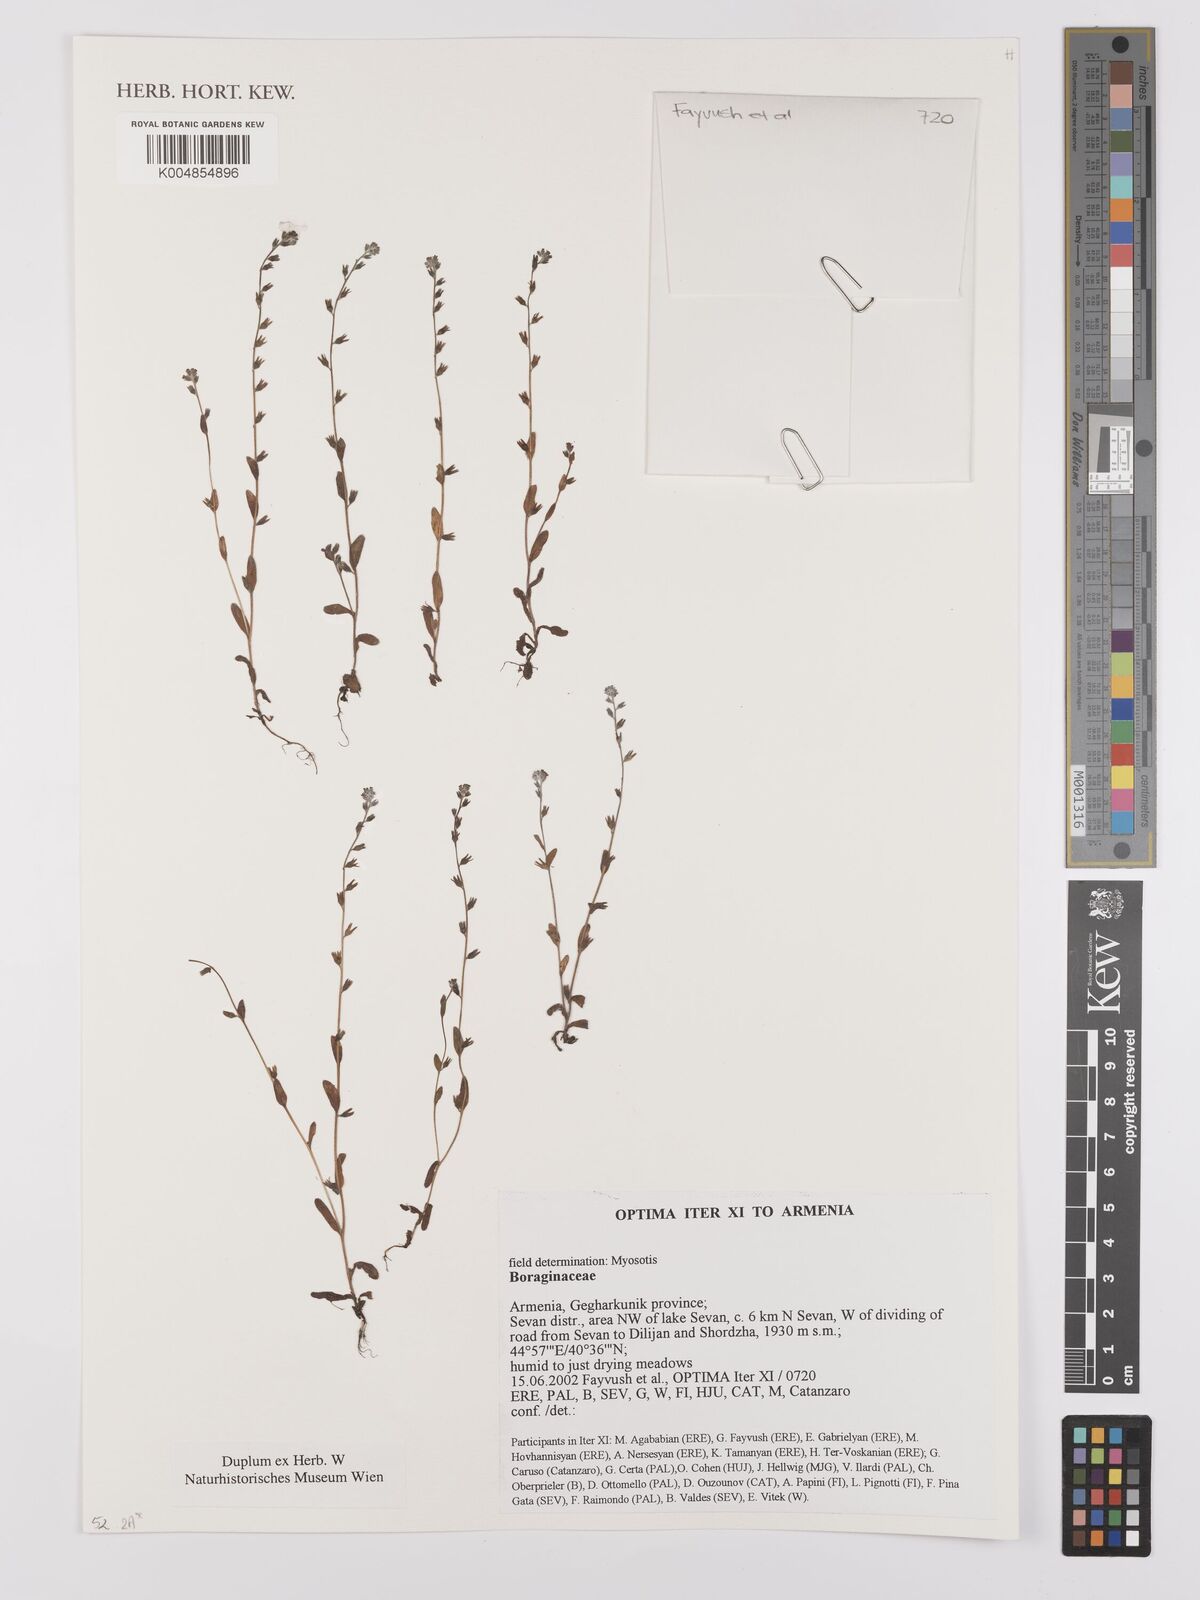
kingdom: Plantae
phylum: Tracheophyta
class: Magnoliopsida
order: Boraginales
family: Boraginaceae
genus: Myosotis
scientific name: Myosotis
